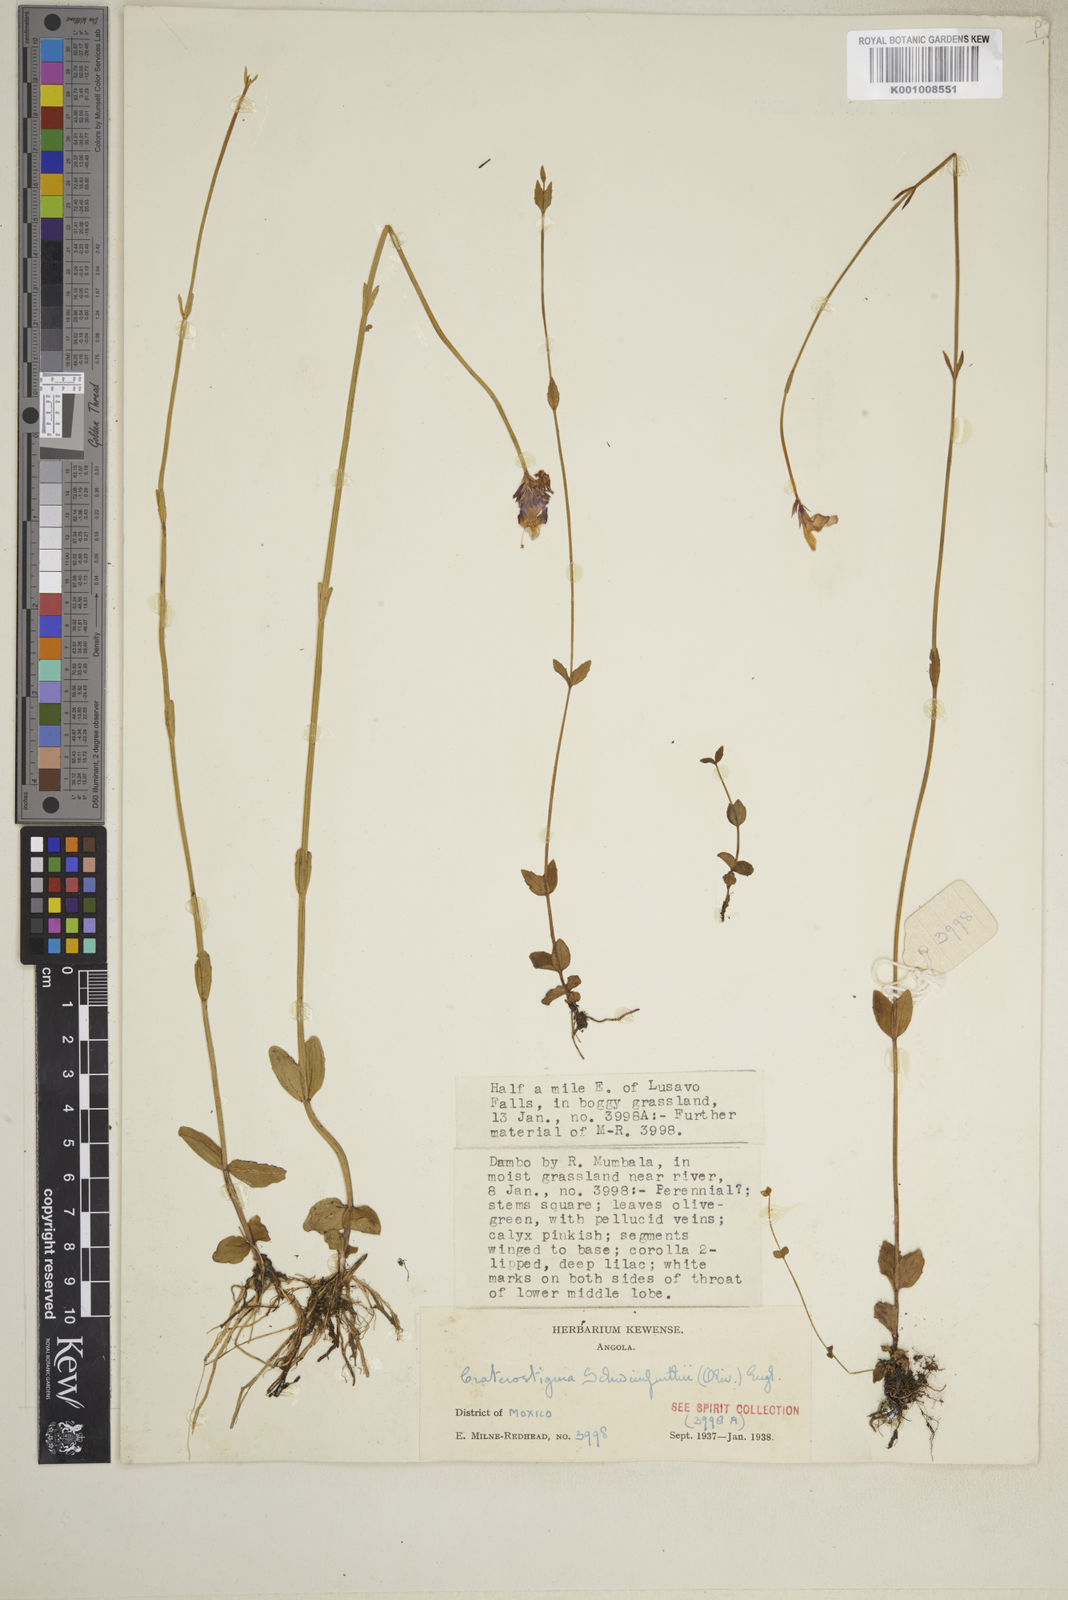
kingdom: Plantae
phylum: Tracheophyta
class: Magnoliopsida
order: Lamiales
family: Linderniaceae
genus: Crepidorhopalon
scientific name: Crepidorhopalon schweinfurthii
